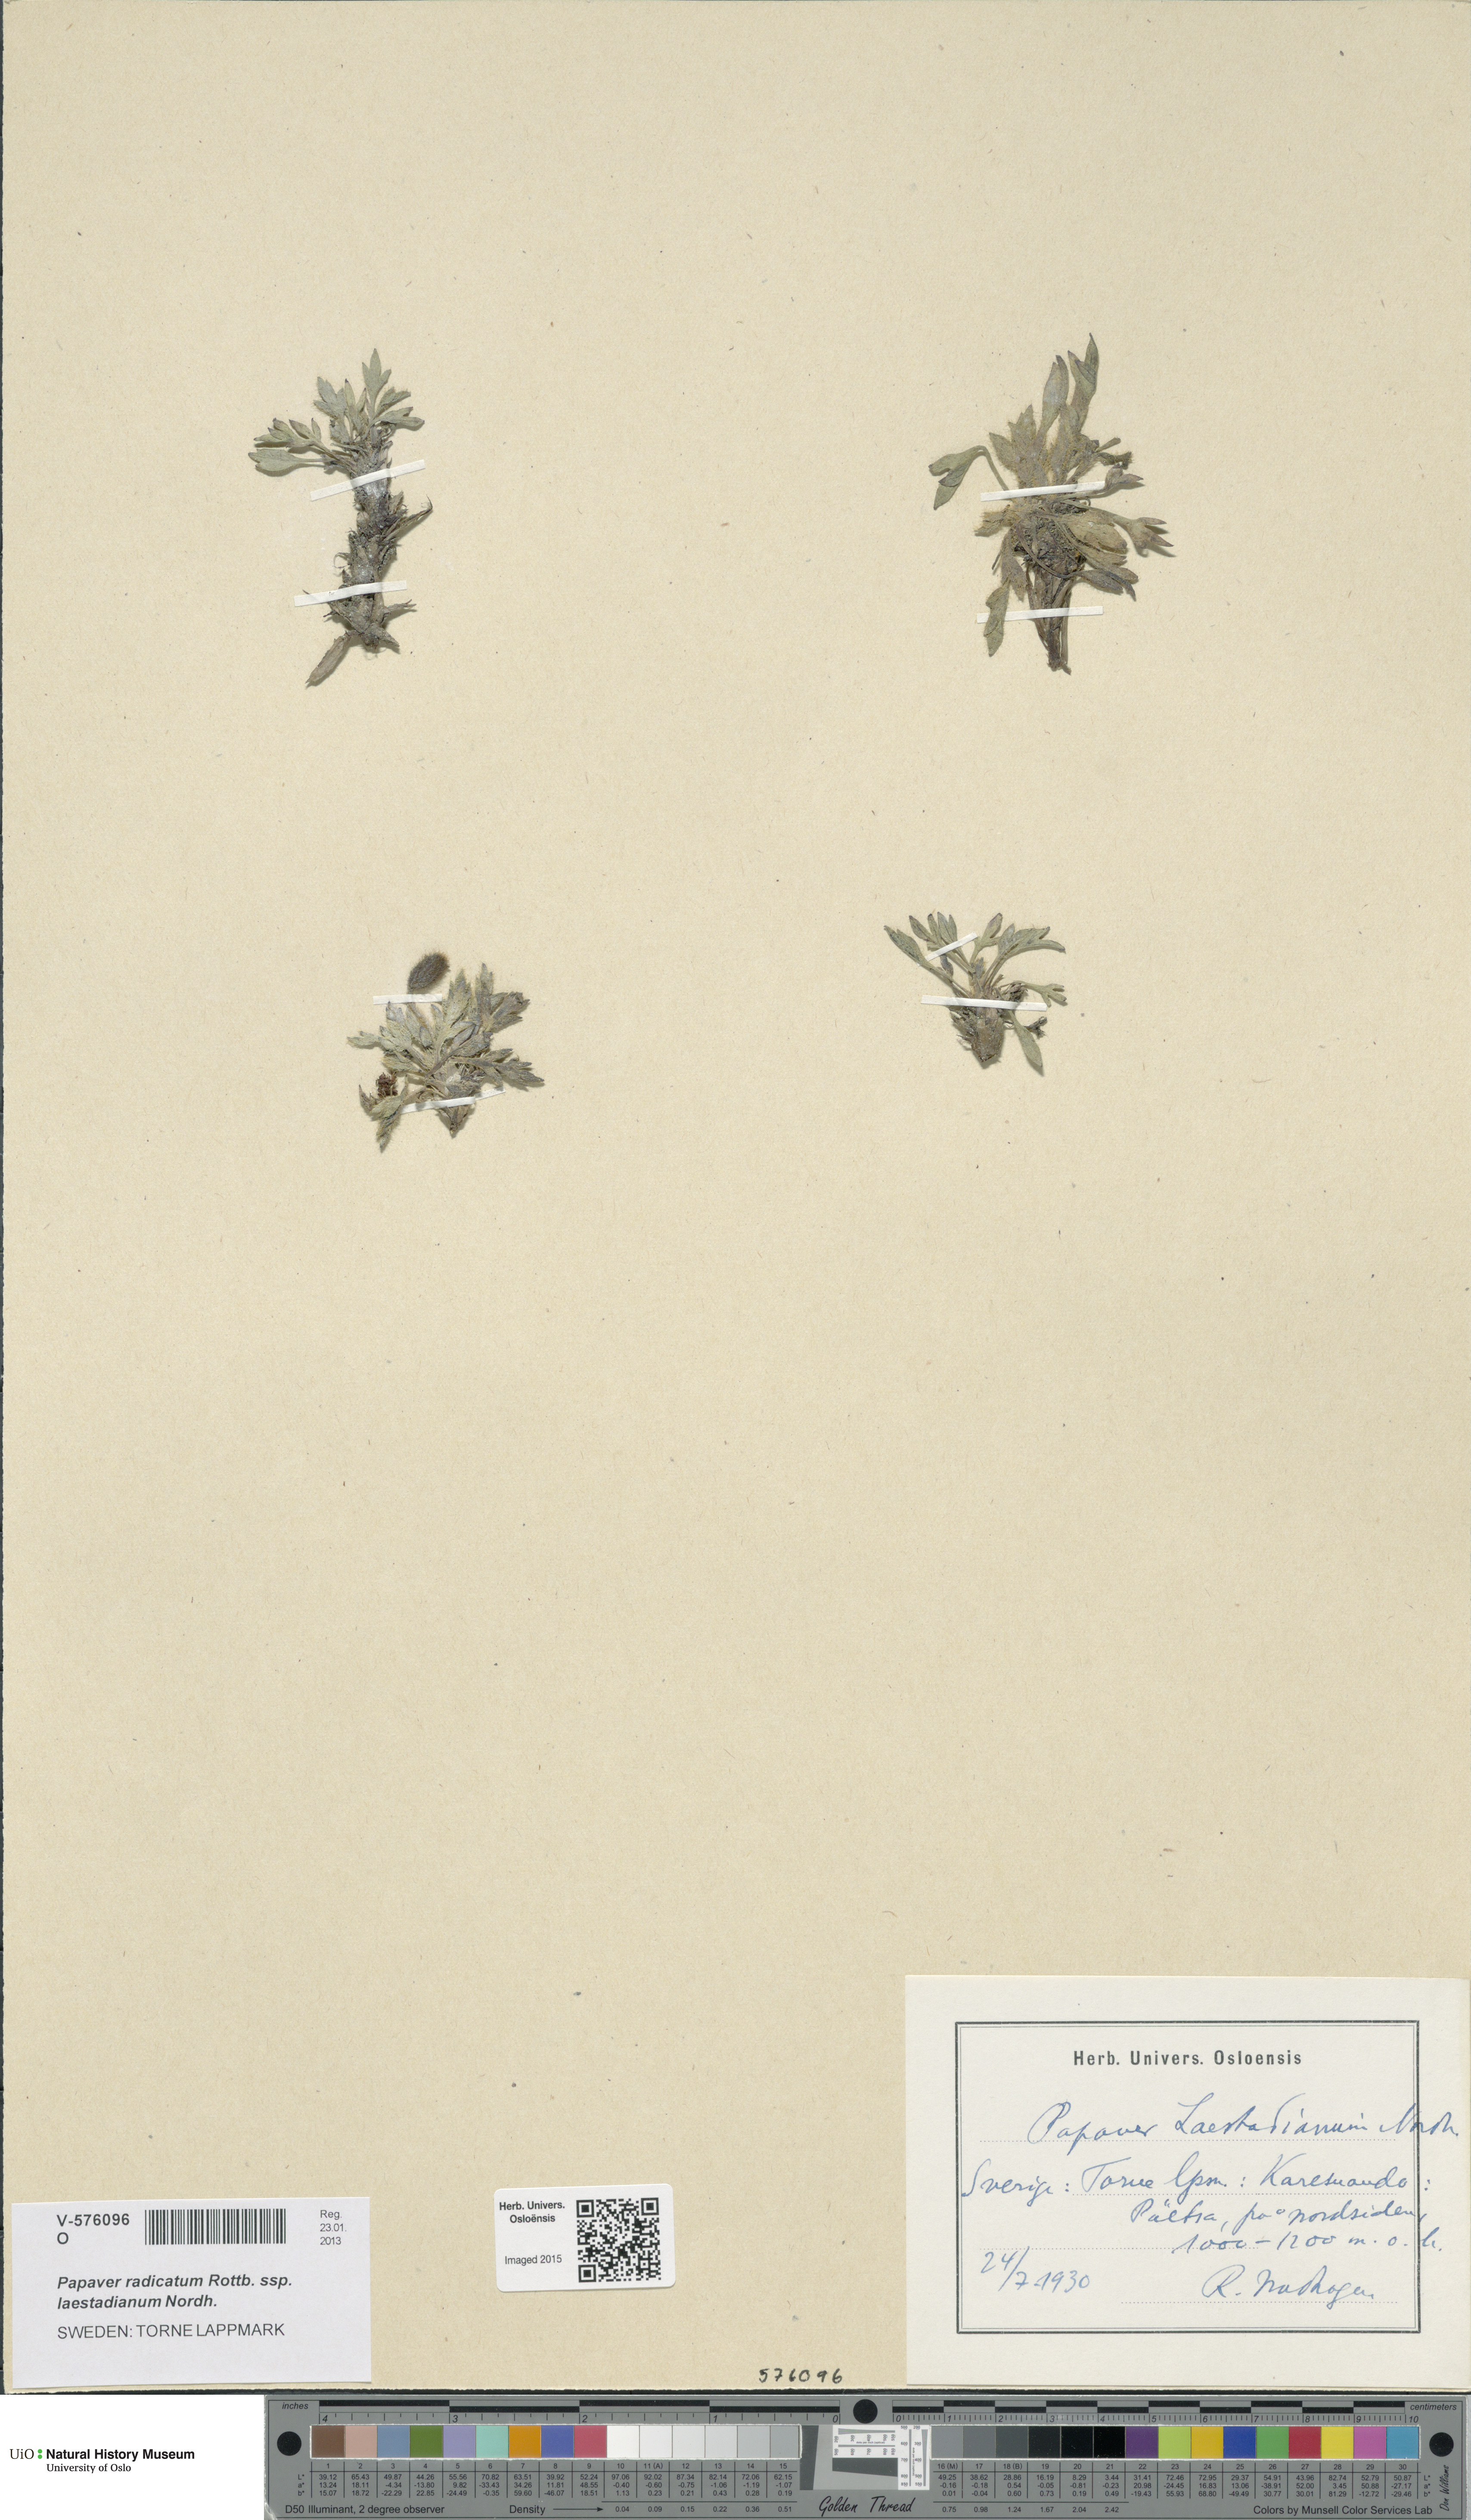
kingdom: Plantae
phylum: Tracheophyta
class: Magnoliopsida
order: Ranunculales
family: Papaveraceae
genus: Papaver
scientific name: Papaver laestadianum
